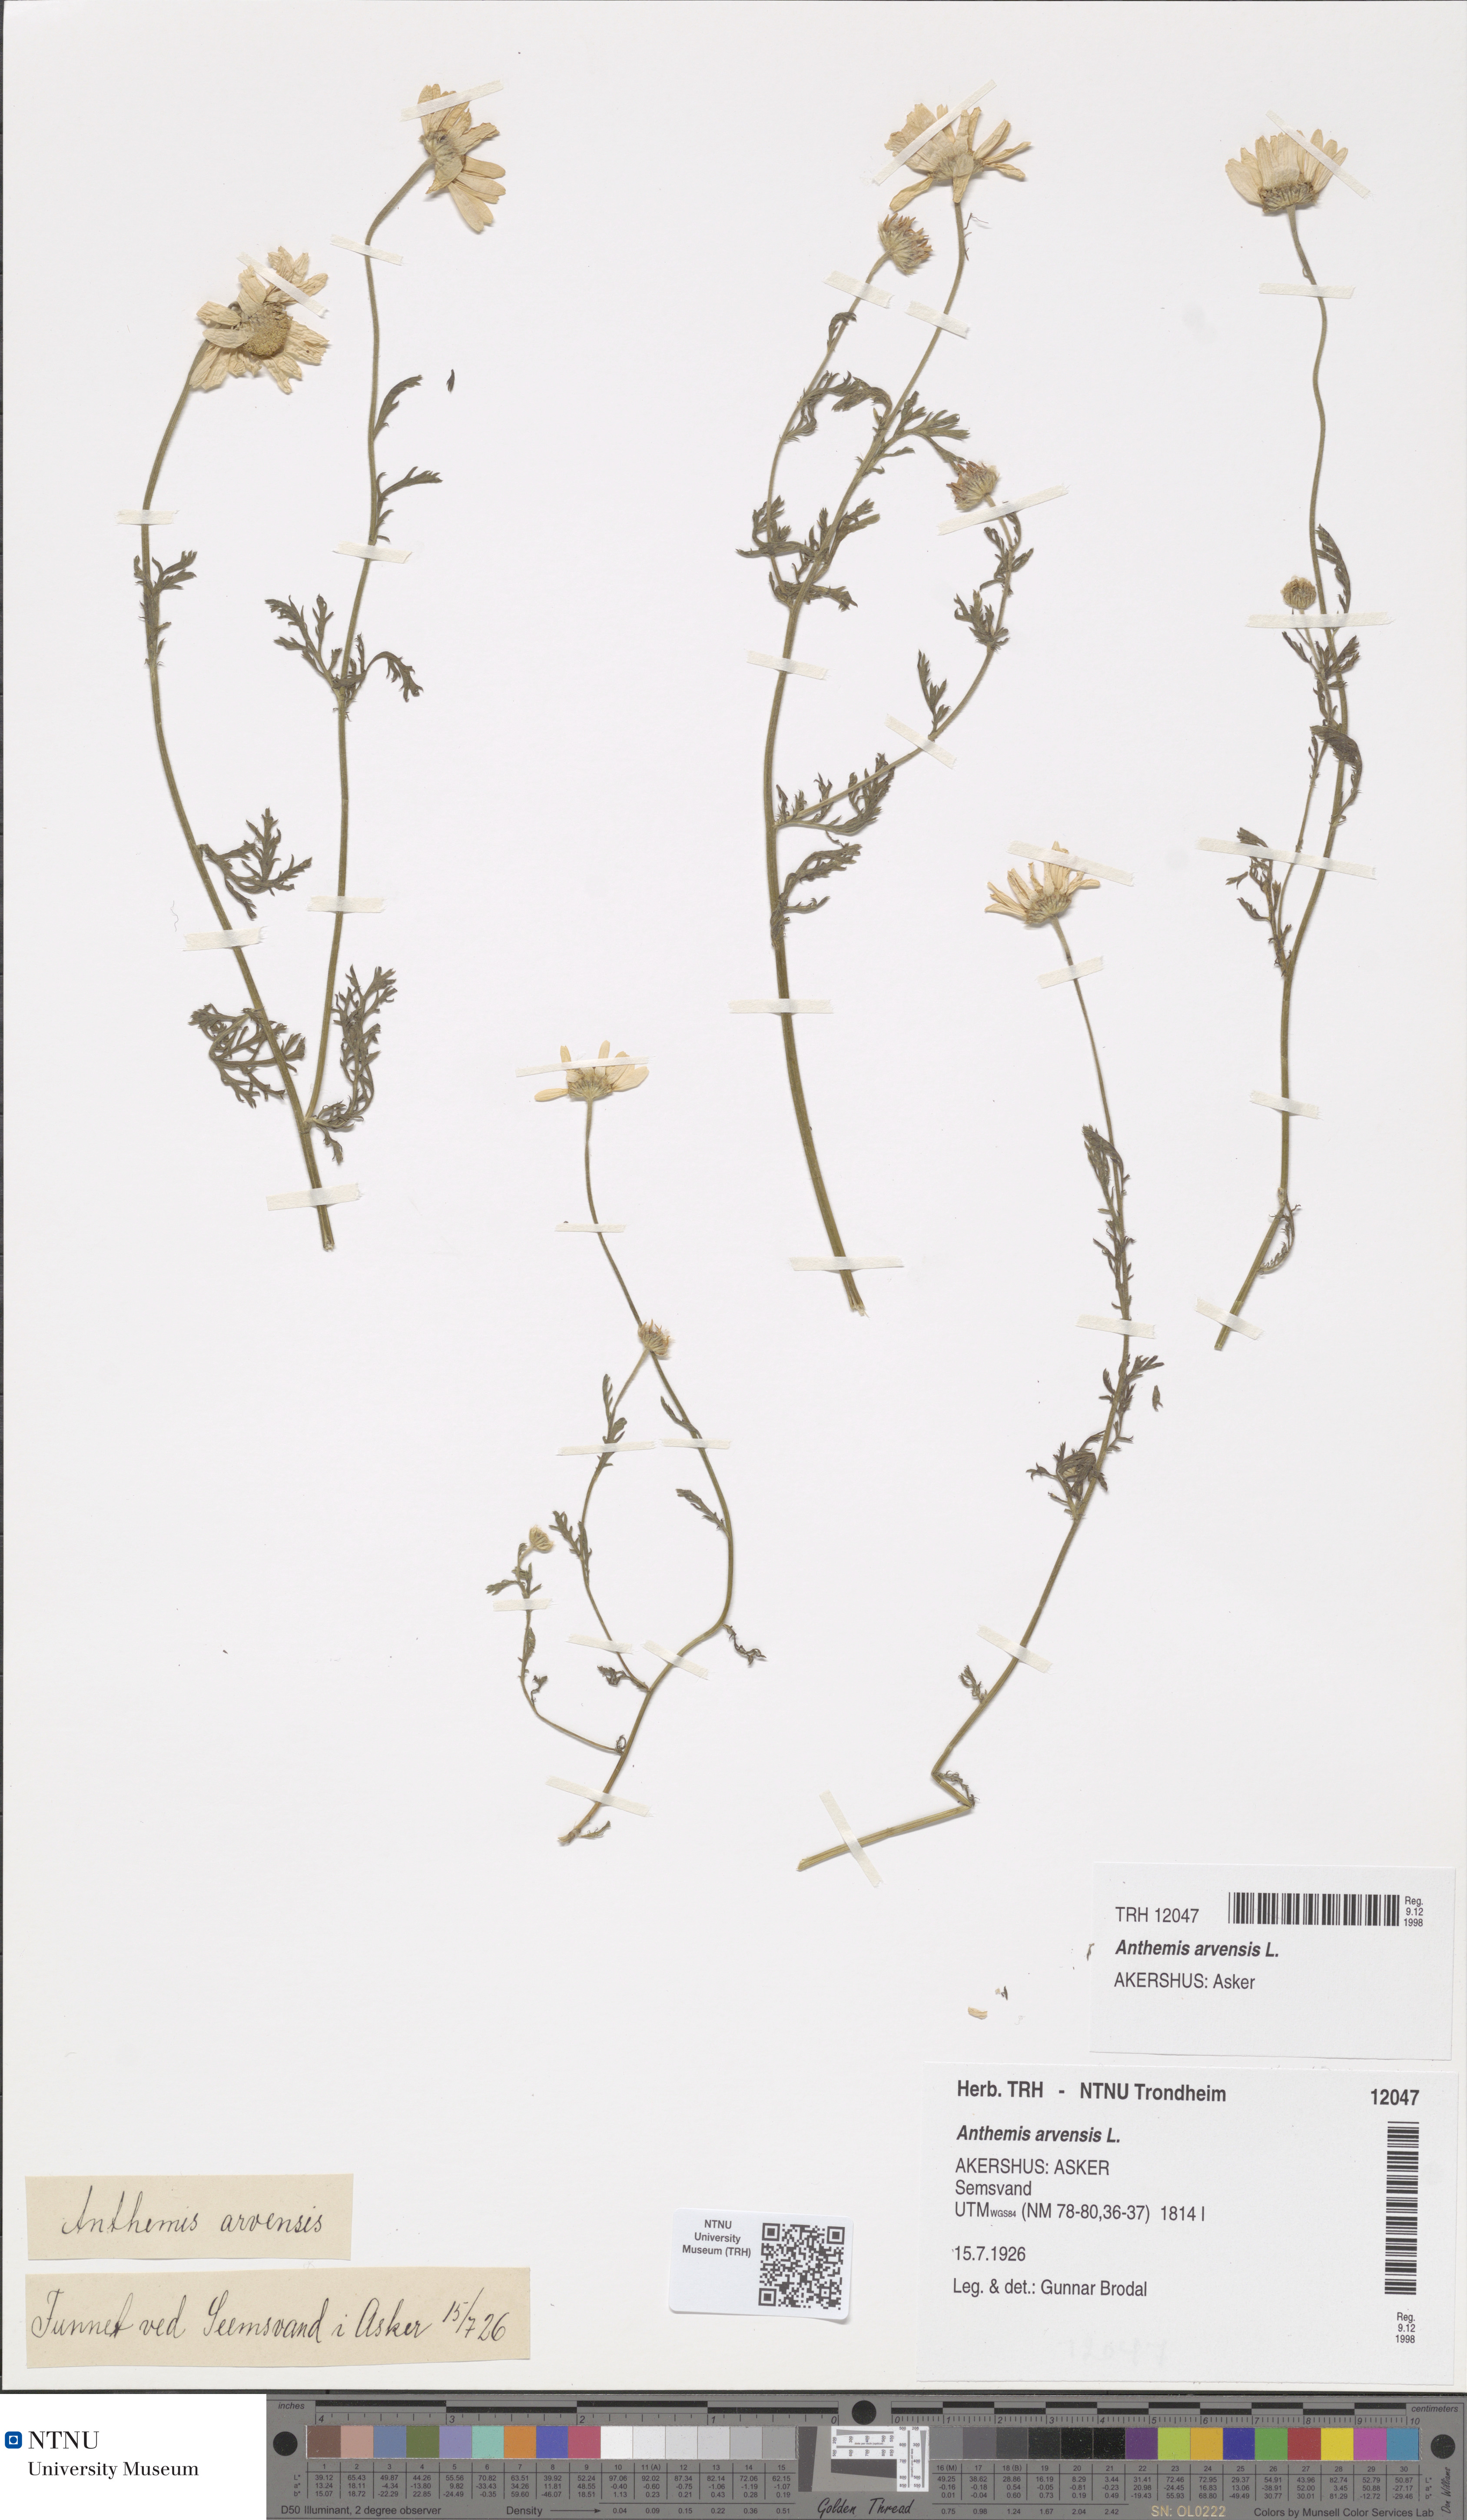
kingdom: Plantae
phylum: Tracheophyta
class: Magnoliopsida
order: Asterales
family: Asteraceae
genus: Anthemis
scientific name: Anthemis arvensis
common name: Corn chamomile
